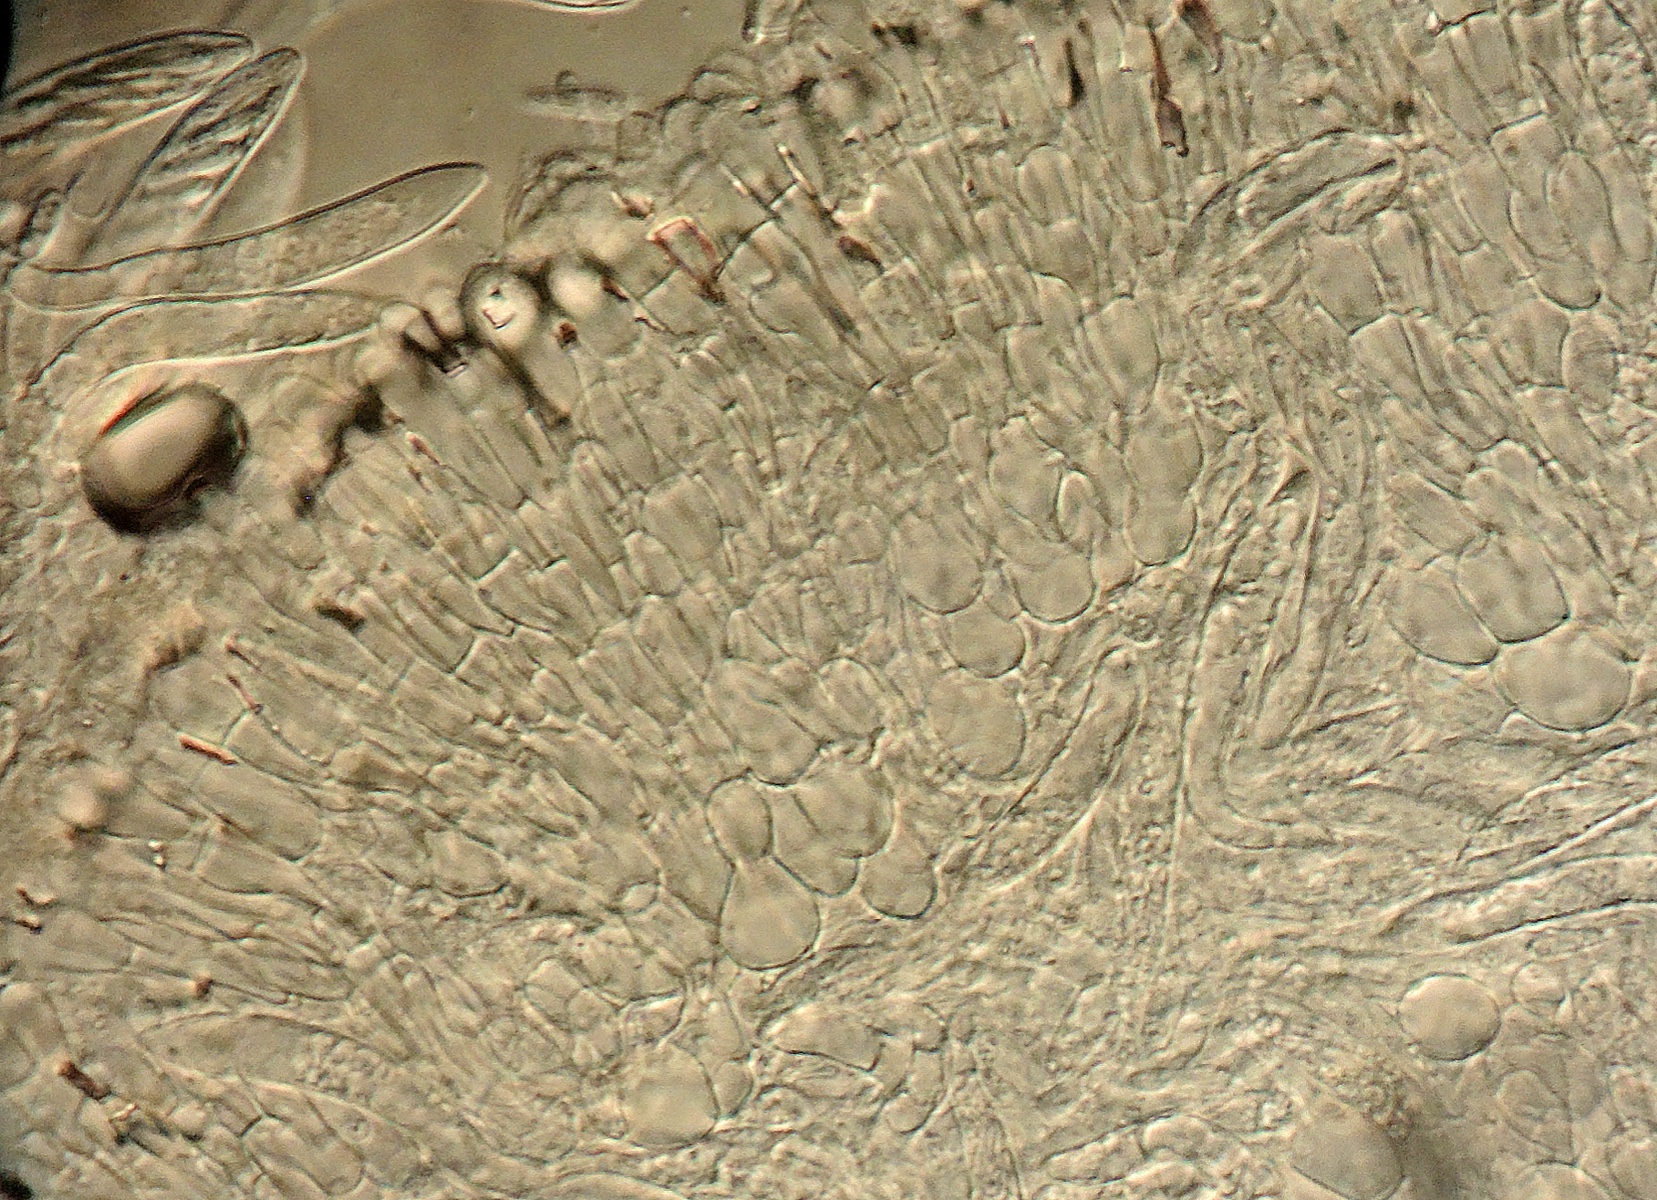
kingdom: Fungi
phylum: Ascomycota
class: Leotiomycetes
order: Helotiales
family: Mollisiaceae
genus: Mollisia
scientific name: Mollisia
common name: gråskive
